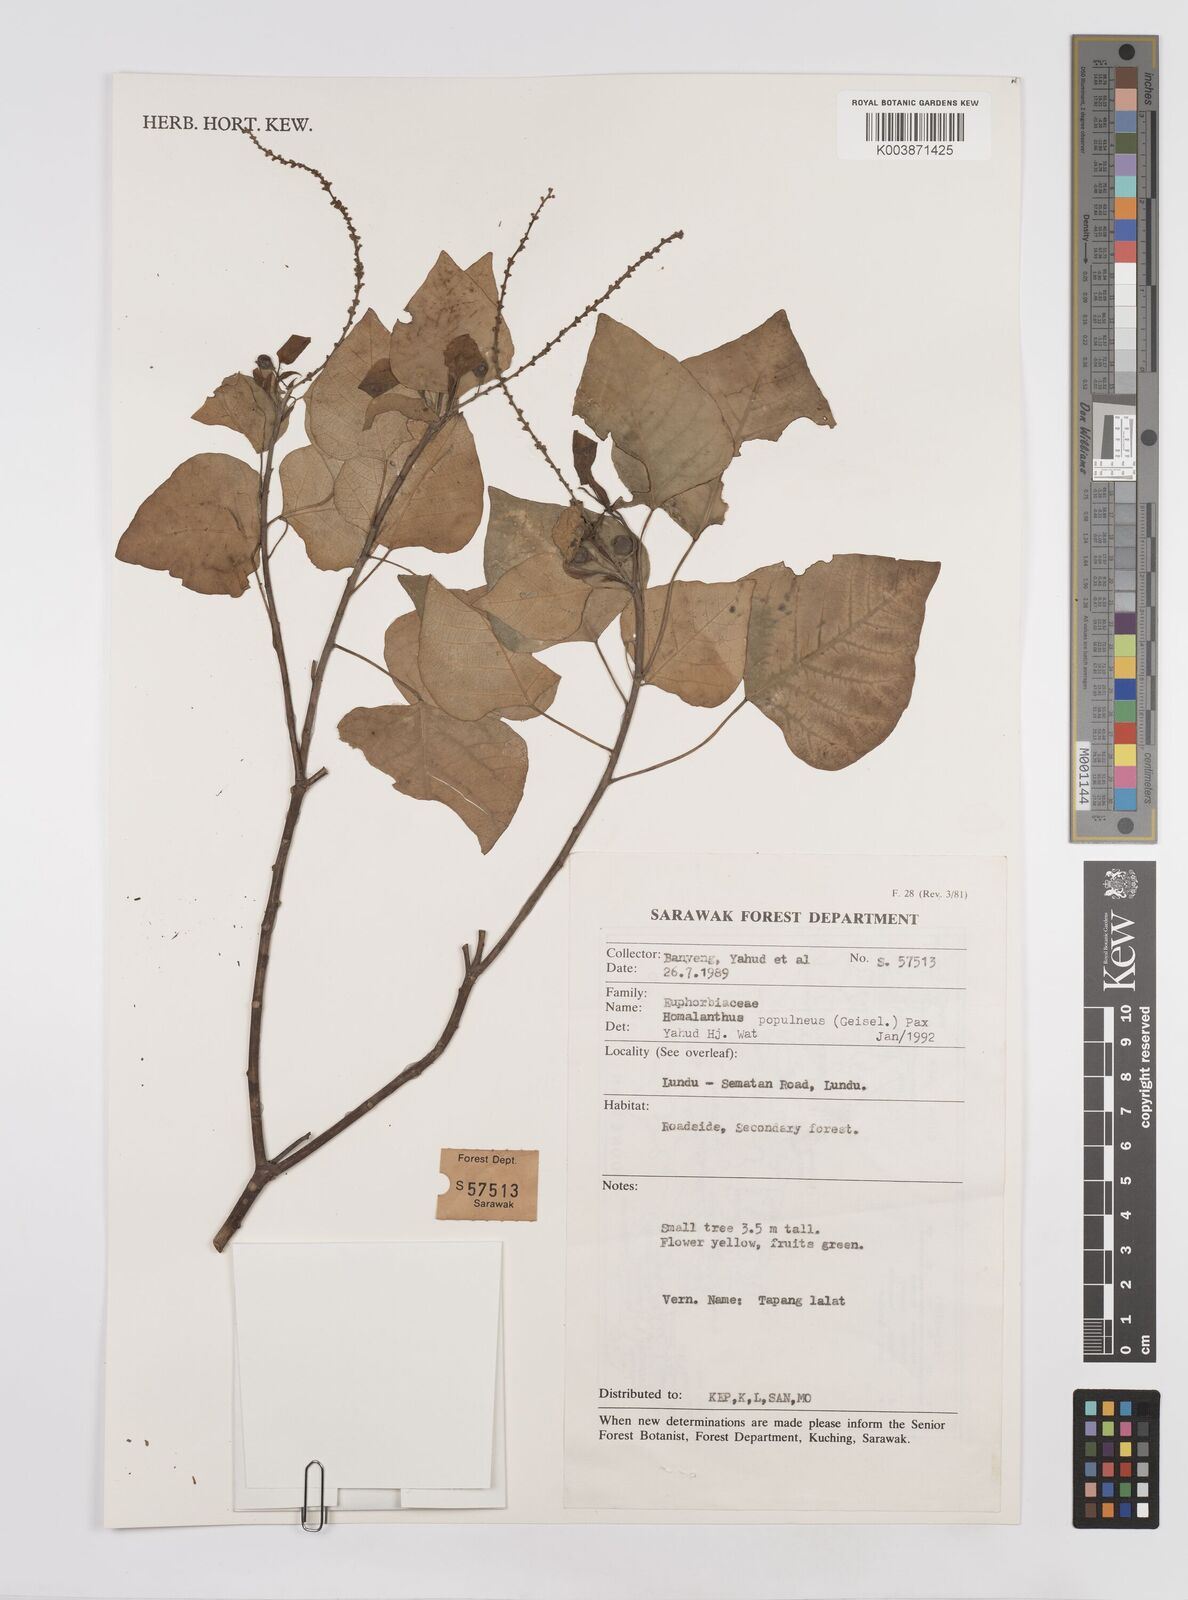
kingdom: Plantae
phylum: Tracheophyta
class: Magnoliopsida
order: Malpighiales
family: Euphorbiaceae
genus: Homalanthus
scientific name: Homalanthus populneus
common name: Spurge
